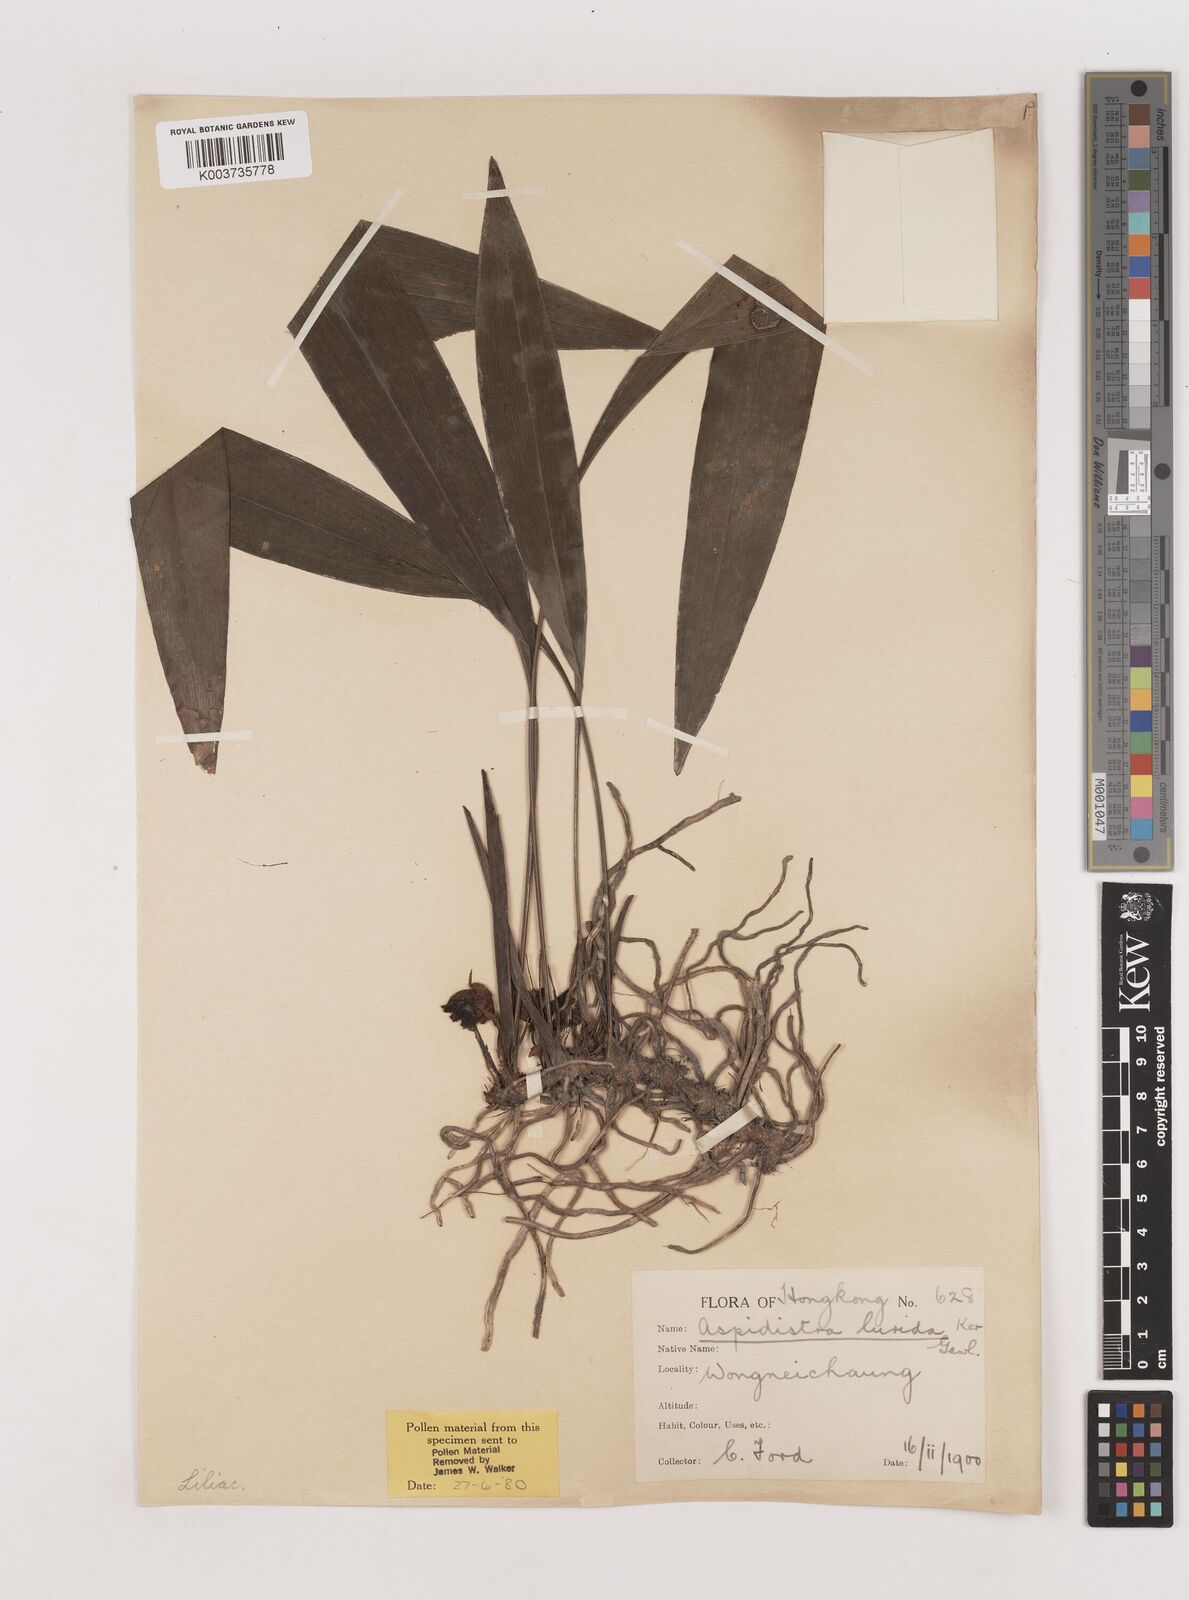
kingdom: Plantae
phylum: Tracheophyta
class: Liliopsida
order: Asparagales
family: Asparagaceae
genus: Aspidistra
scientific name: Aspidistra lurida
